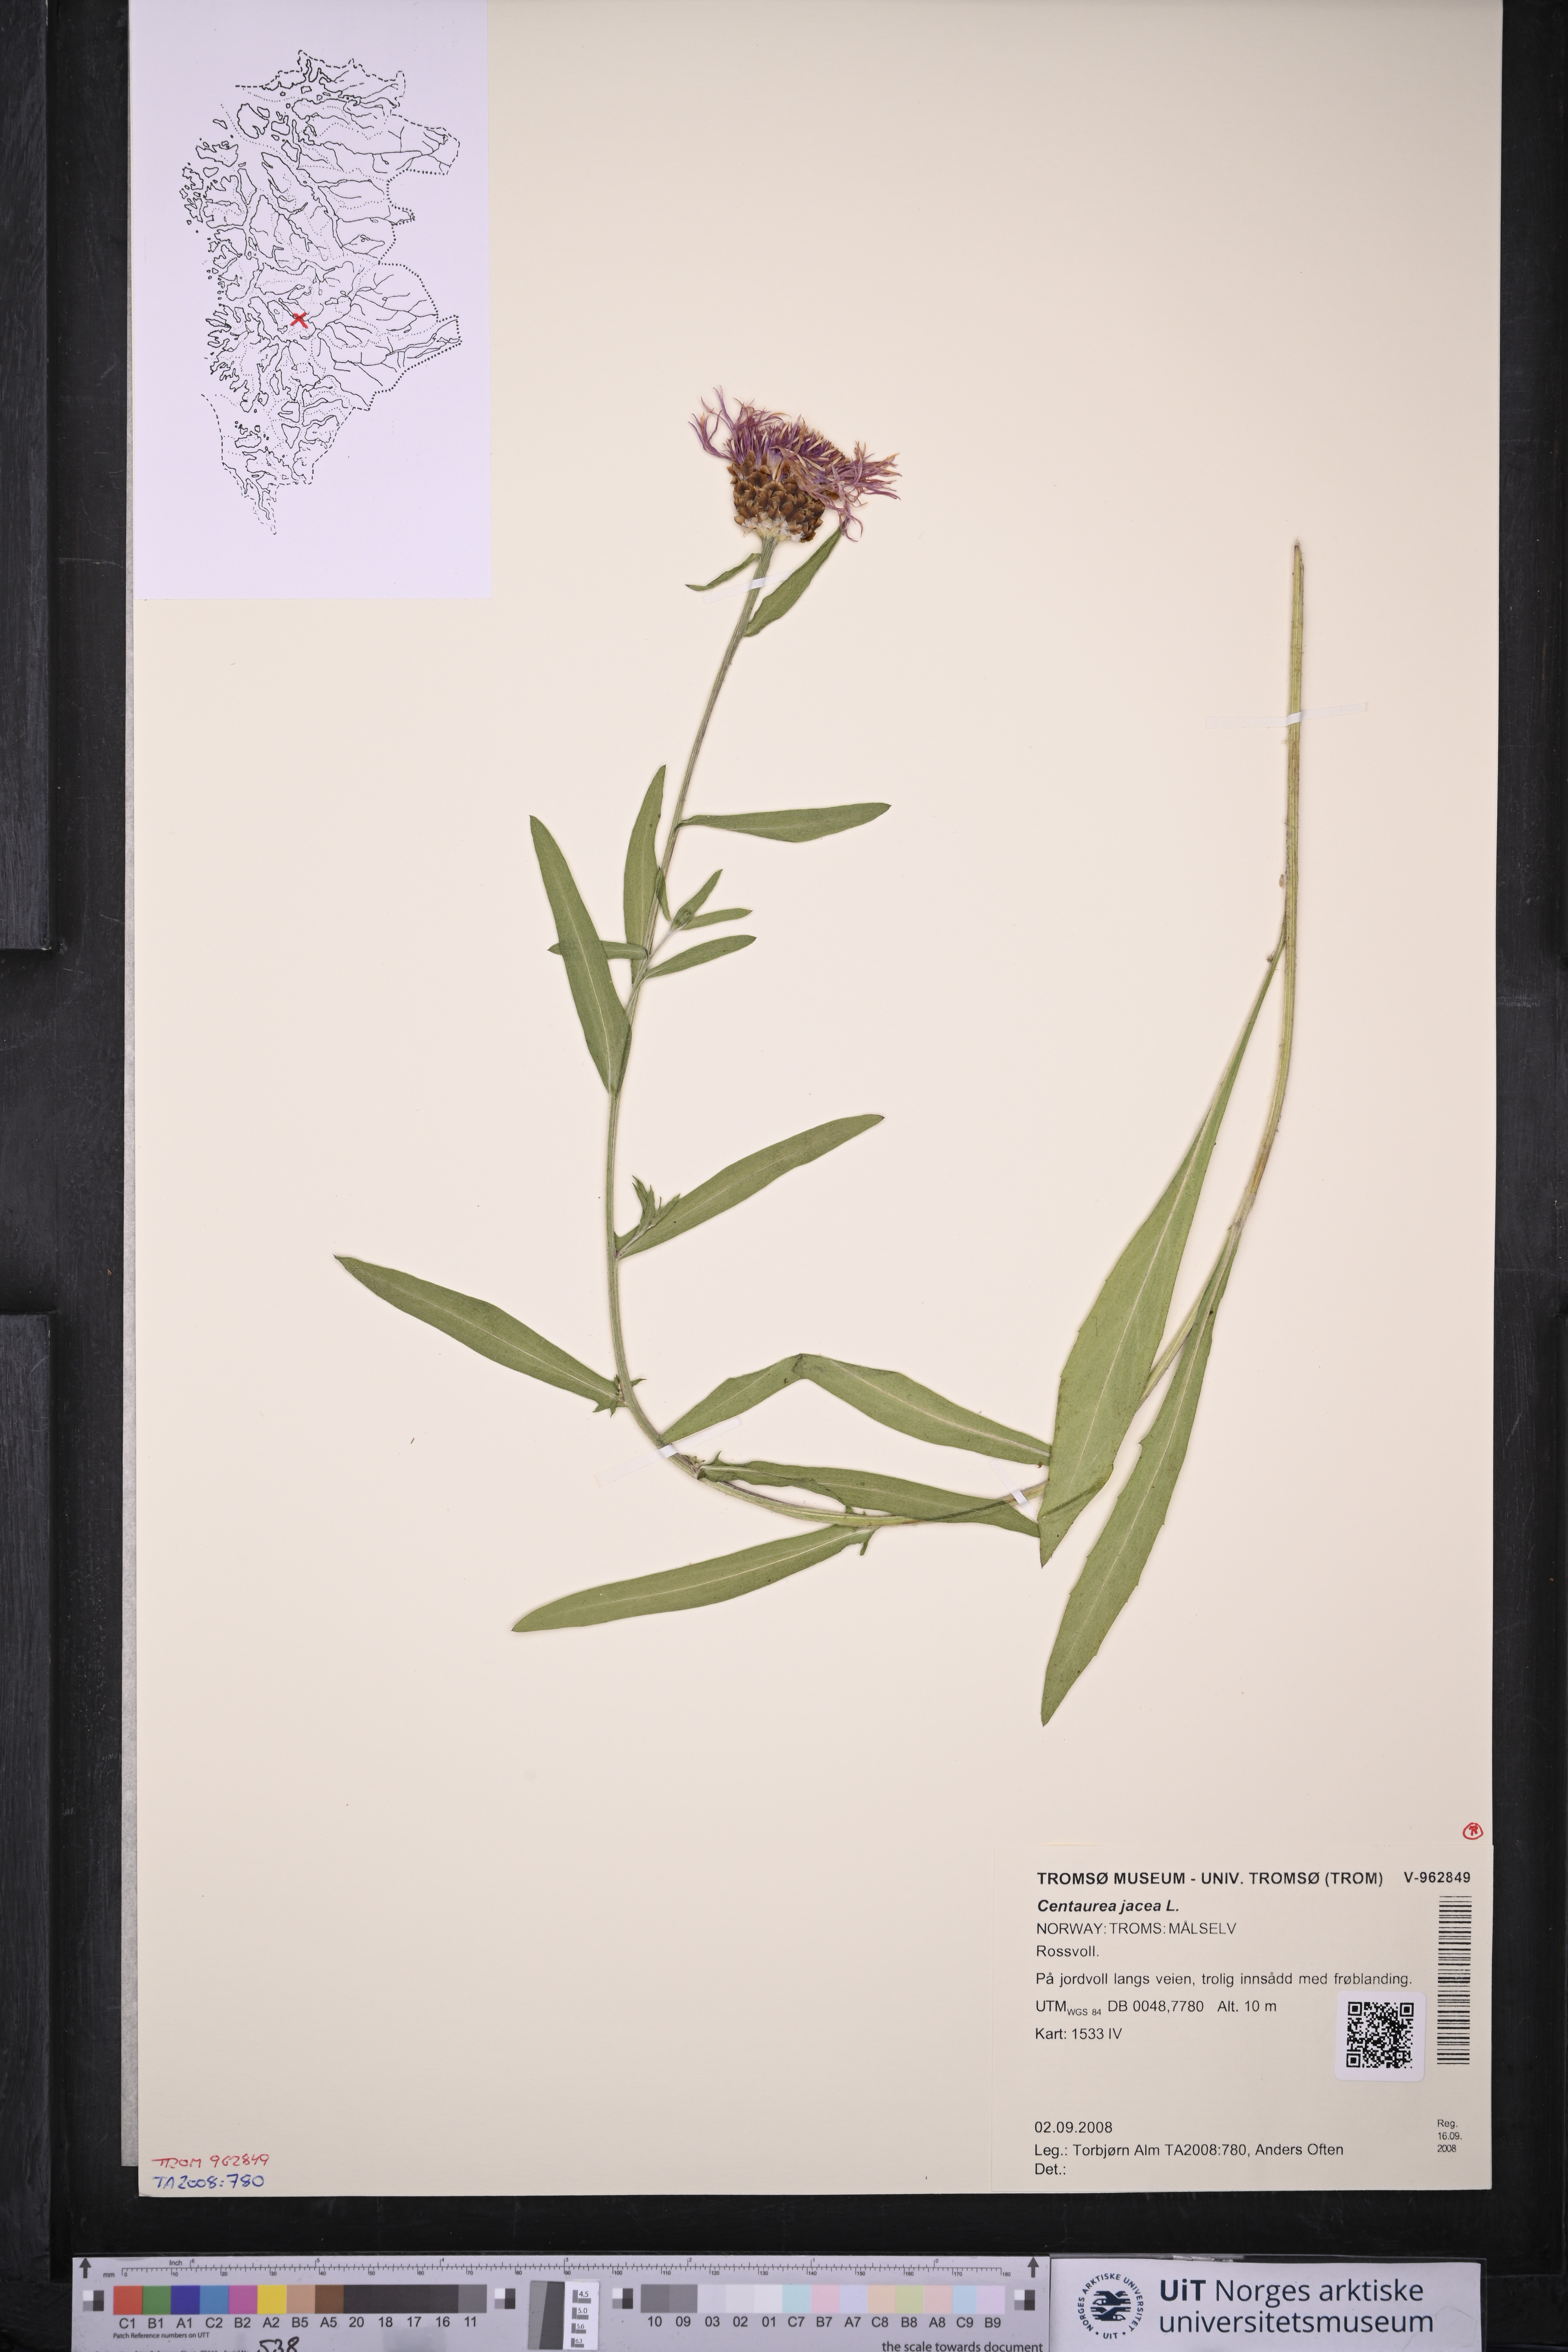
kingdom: Plantae
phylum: Tracheophyta
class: Magnoliopsida
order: Asterales
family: Asteraceae
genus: Centaurea
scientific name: Centaurea jacea
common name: Brown knapweed
